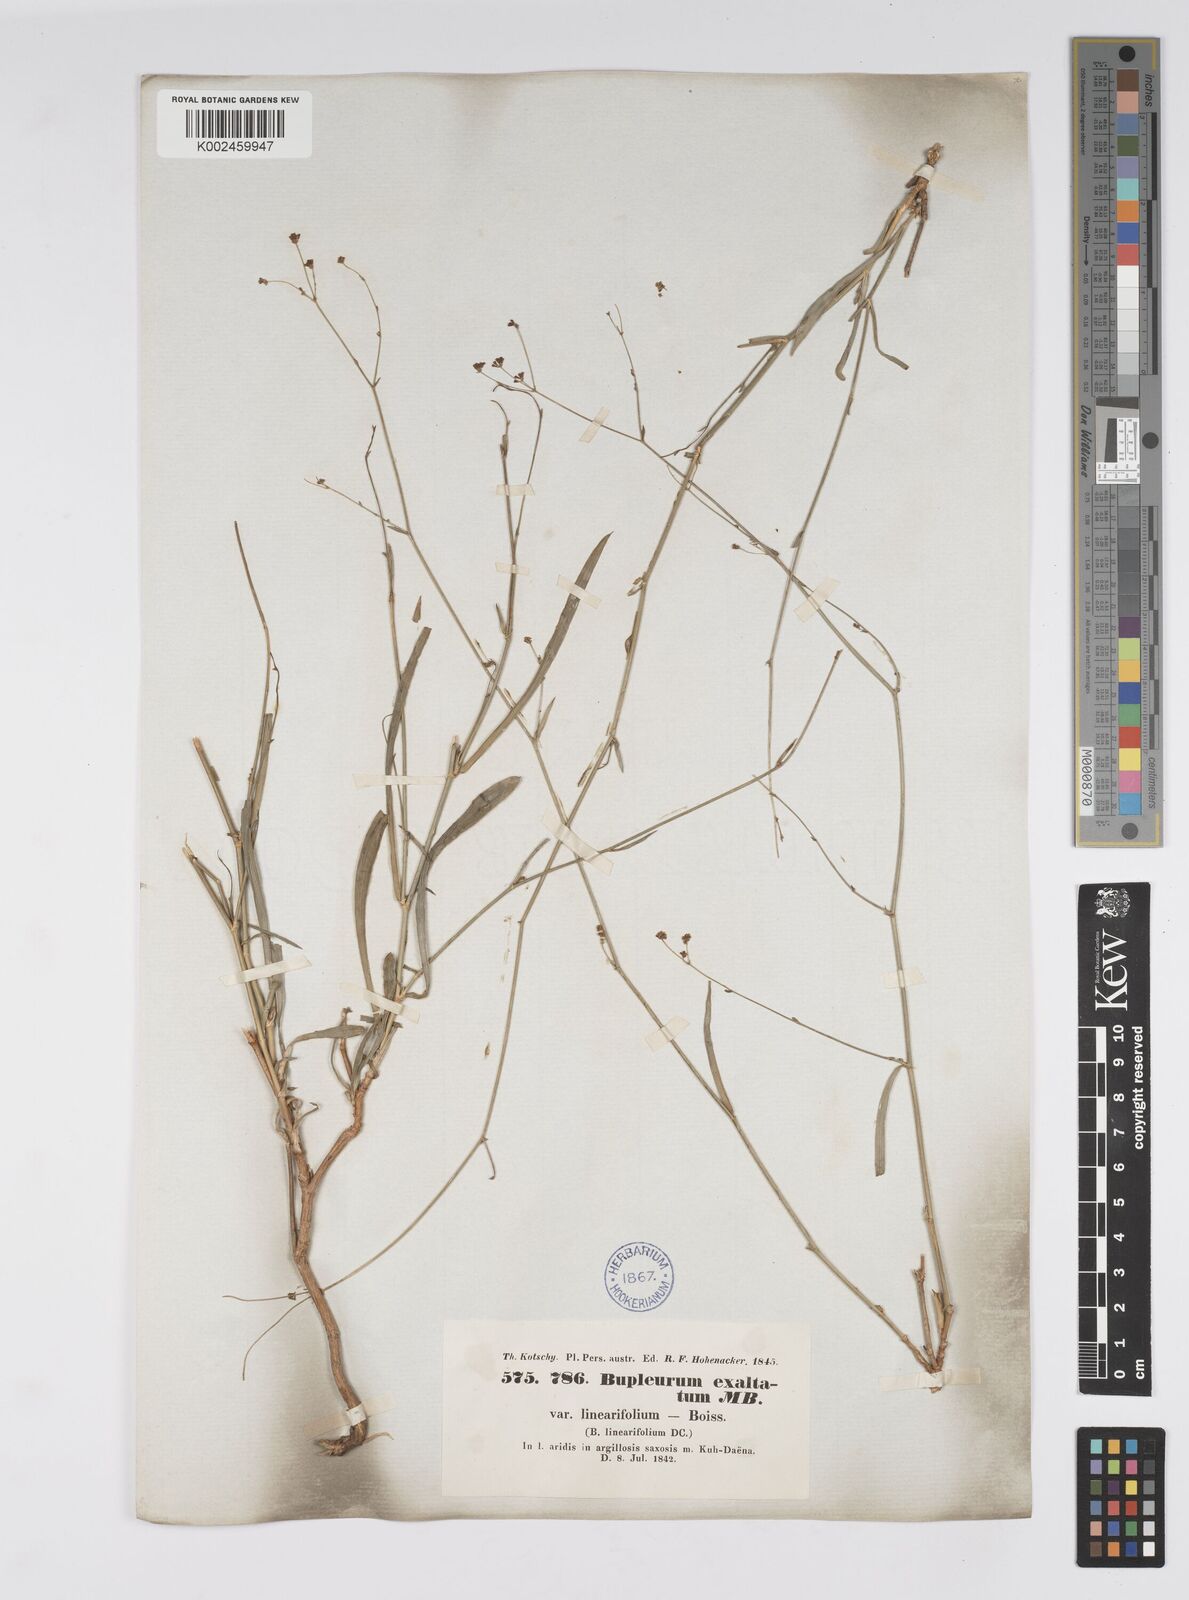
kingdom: Plantae
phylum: Tracheophyta
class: Magnoliopsida
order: Apiales
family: Apiaceae
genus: Bupleurum
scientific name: Bupleurum falcatum
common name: Sickle-leaved hare's-ear
